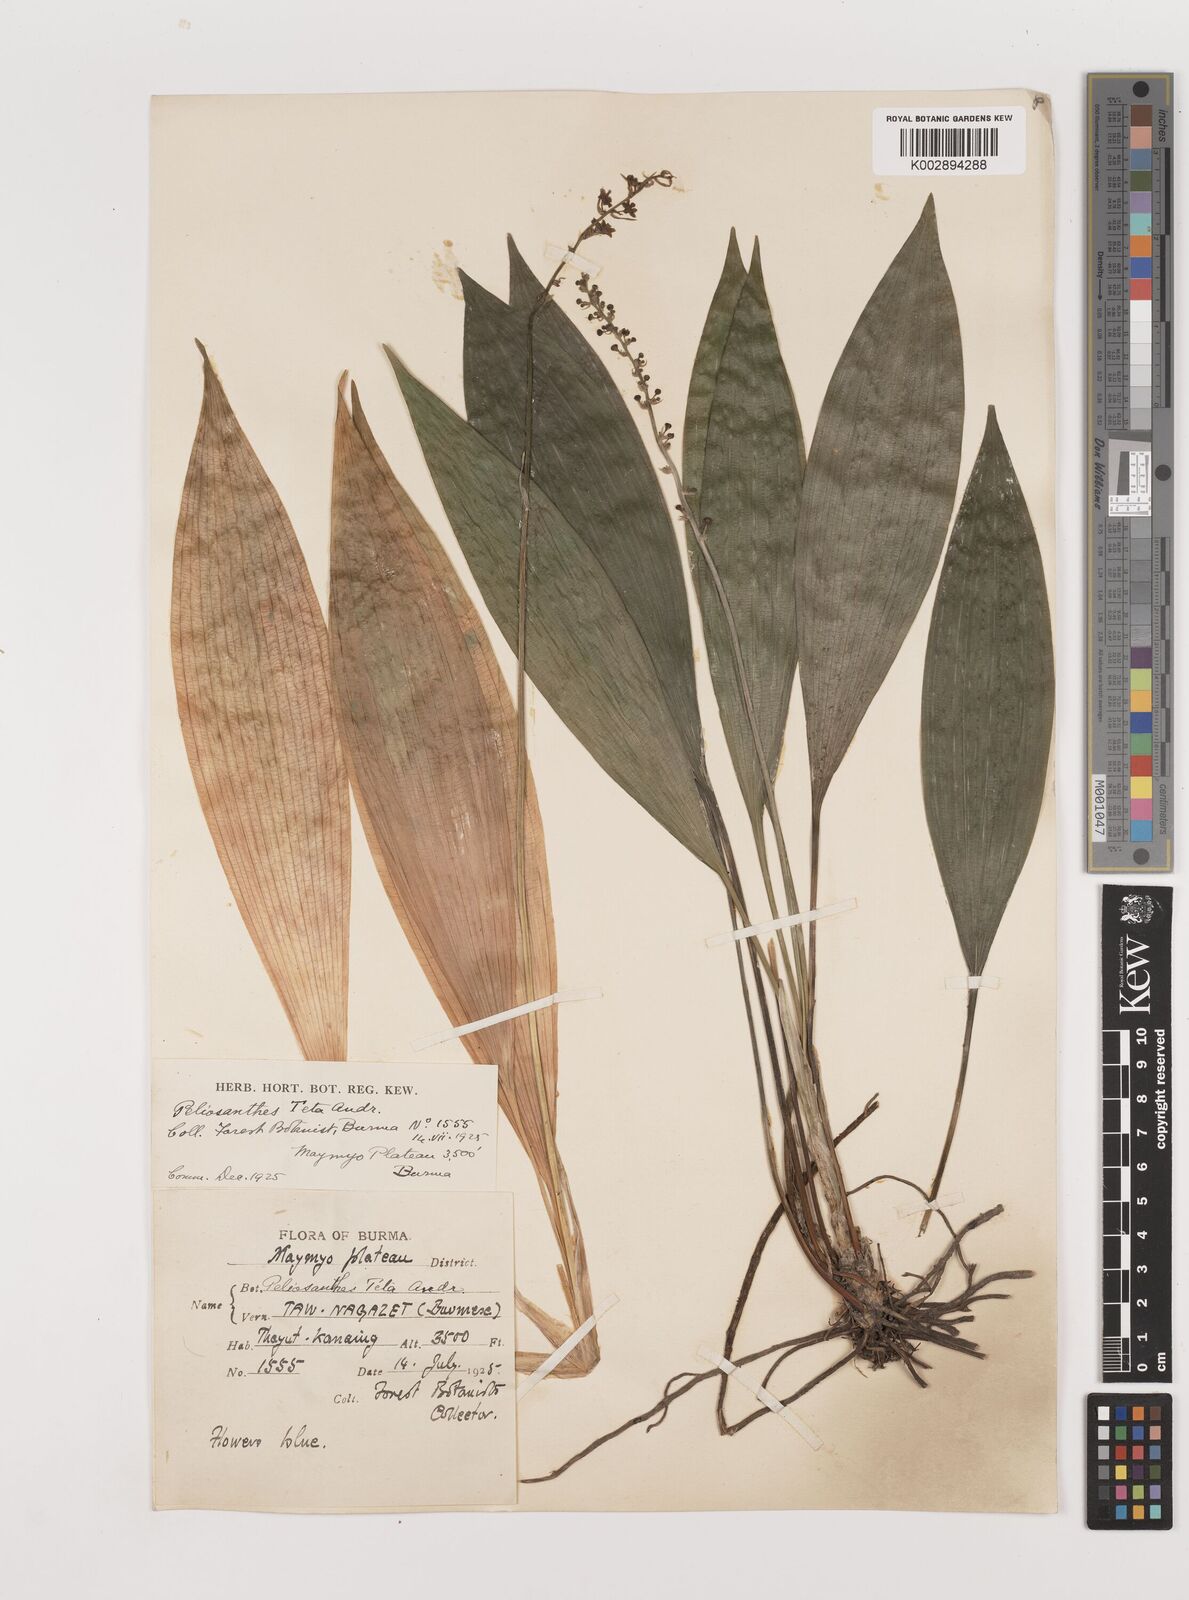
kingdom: Plantae
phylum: Tracheophyta
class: Liliopsida
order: Asparagales
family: Asparagaceae
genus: Peliosanthes
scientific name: Peliosanthes teta
